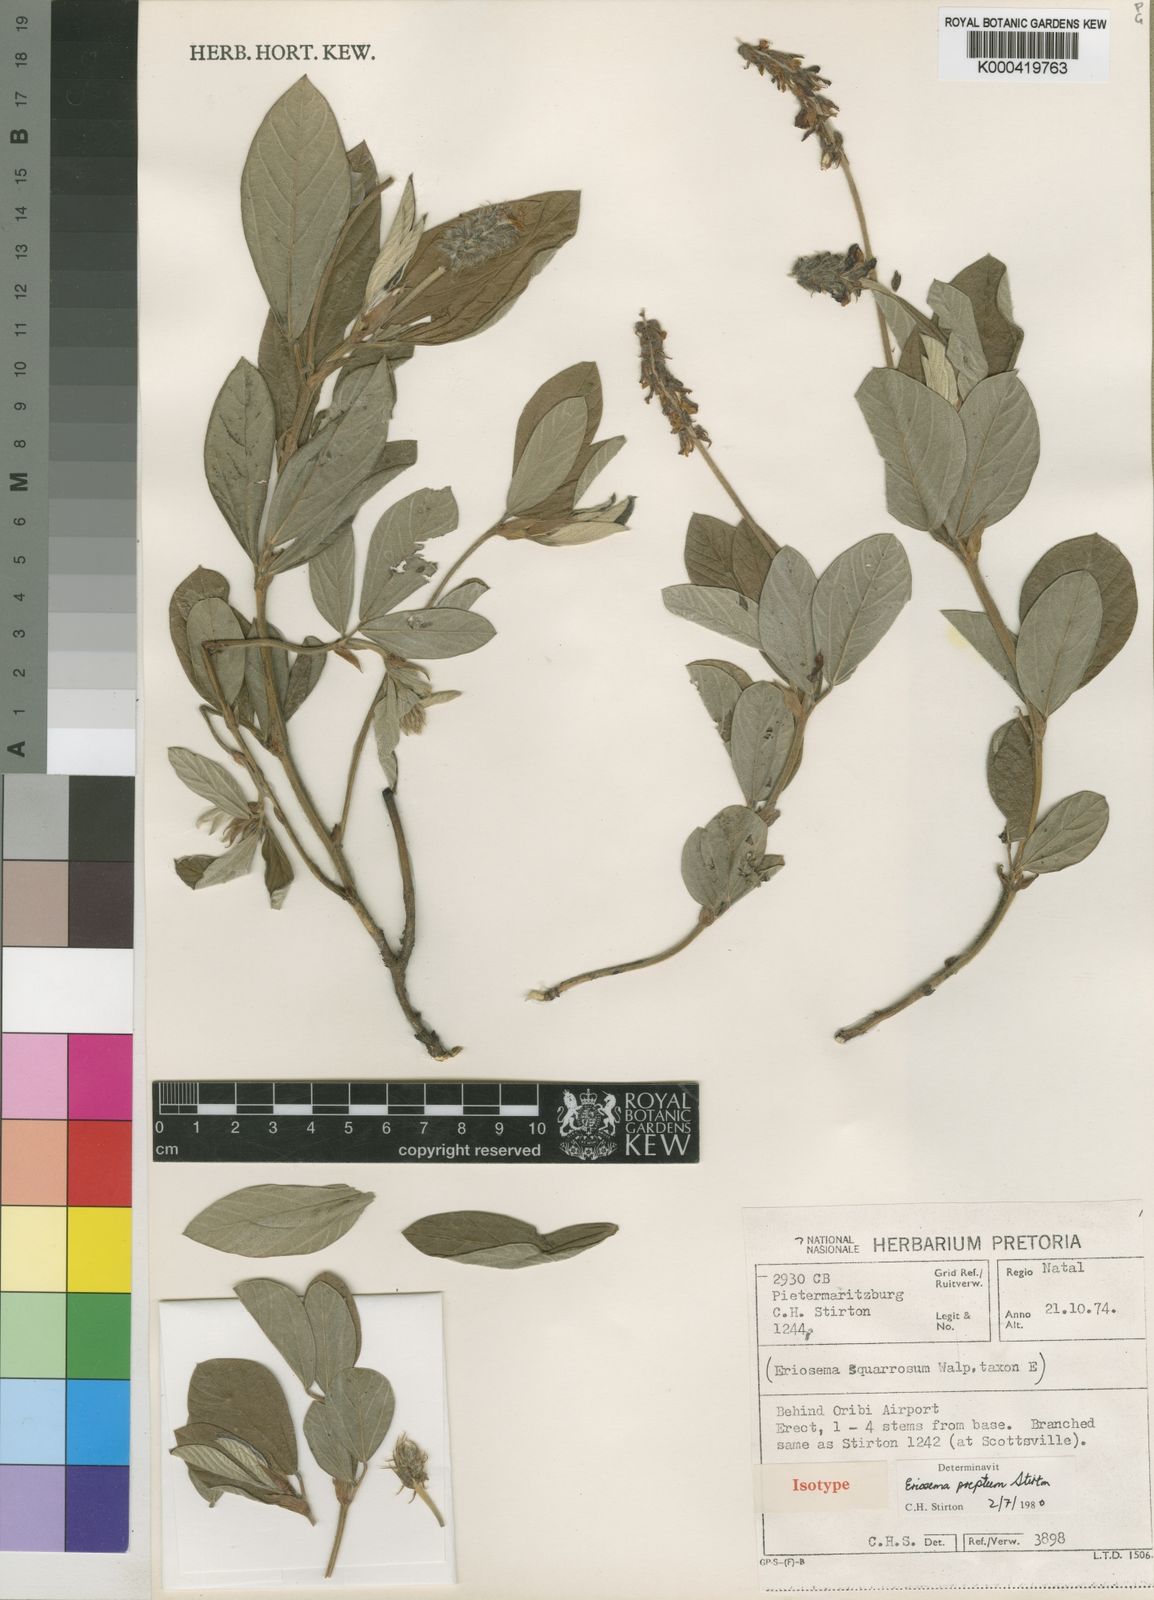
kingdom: Plantae
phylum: Tracheophyta
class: Magnoliopsida
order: Fabales
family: Fabaceae
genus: Eriosema
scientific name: Eriosema preptum
